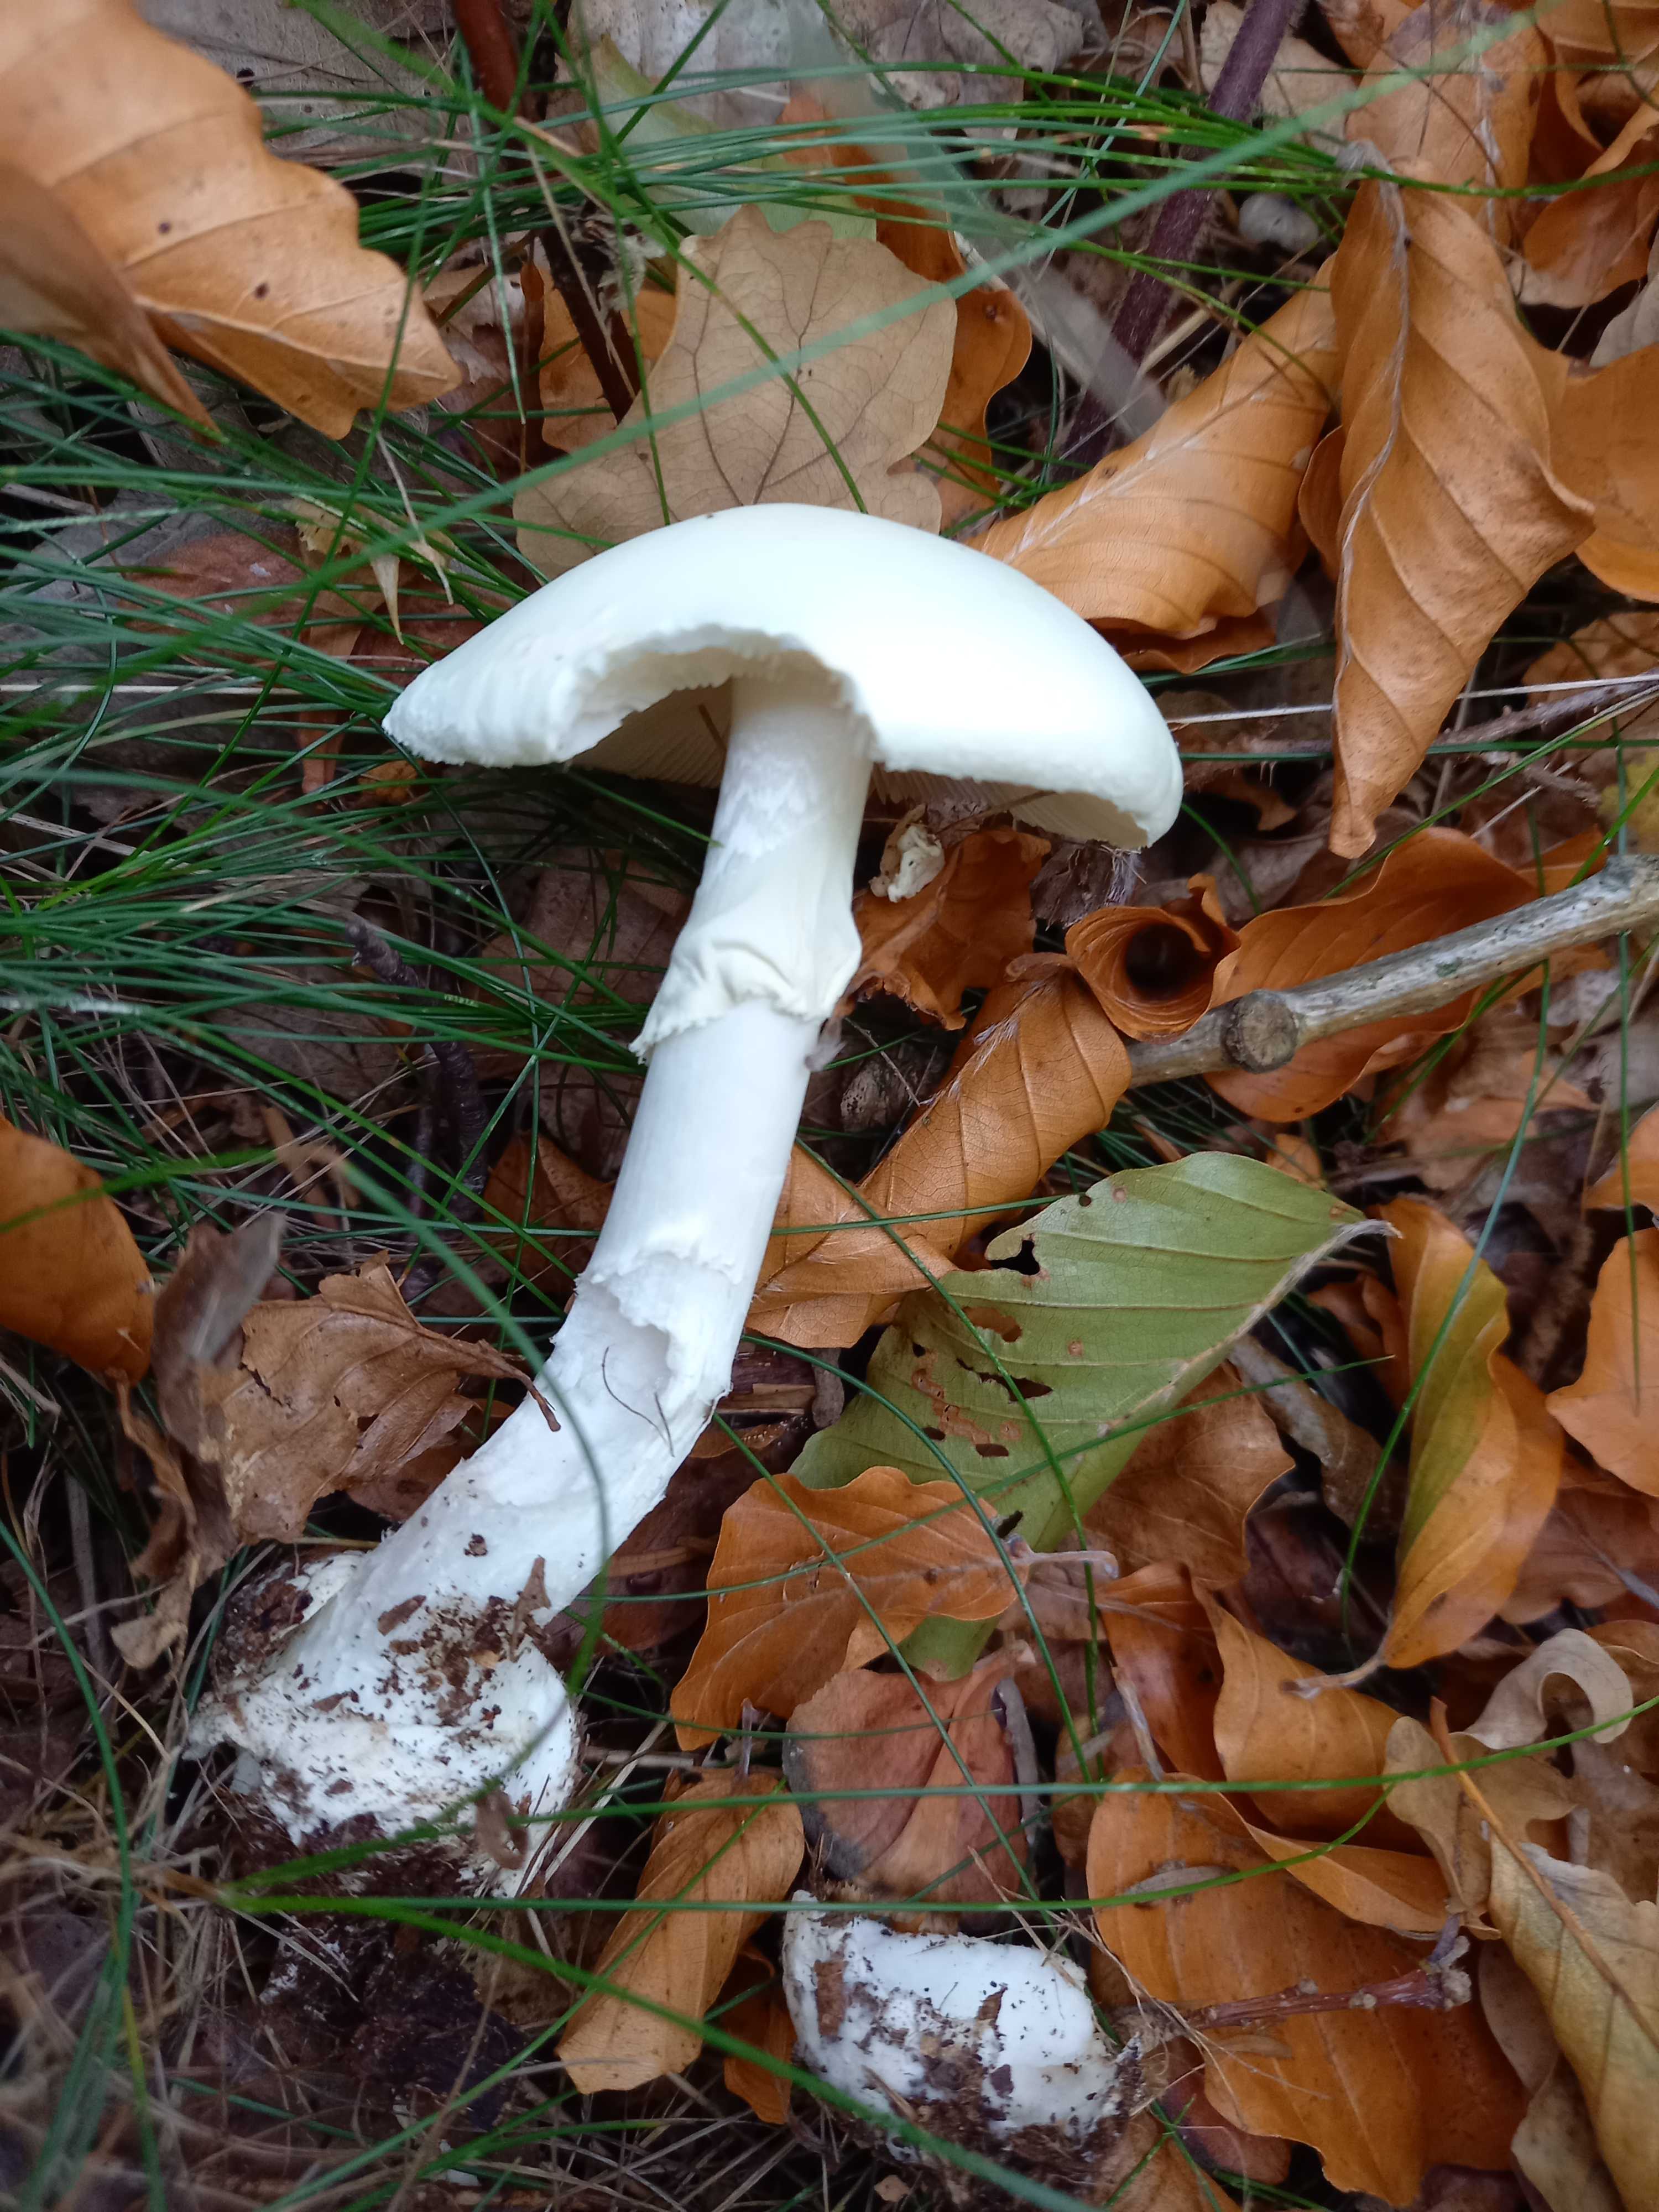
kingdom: Fungi
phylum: Basidiomycota
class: Agaricomycetes
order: Agaricales
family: Amanitaceae
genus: Amanita
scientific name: Amanita citrina
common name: False death-cap
